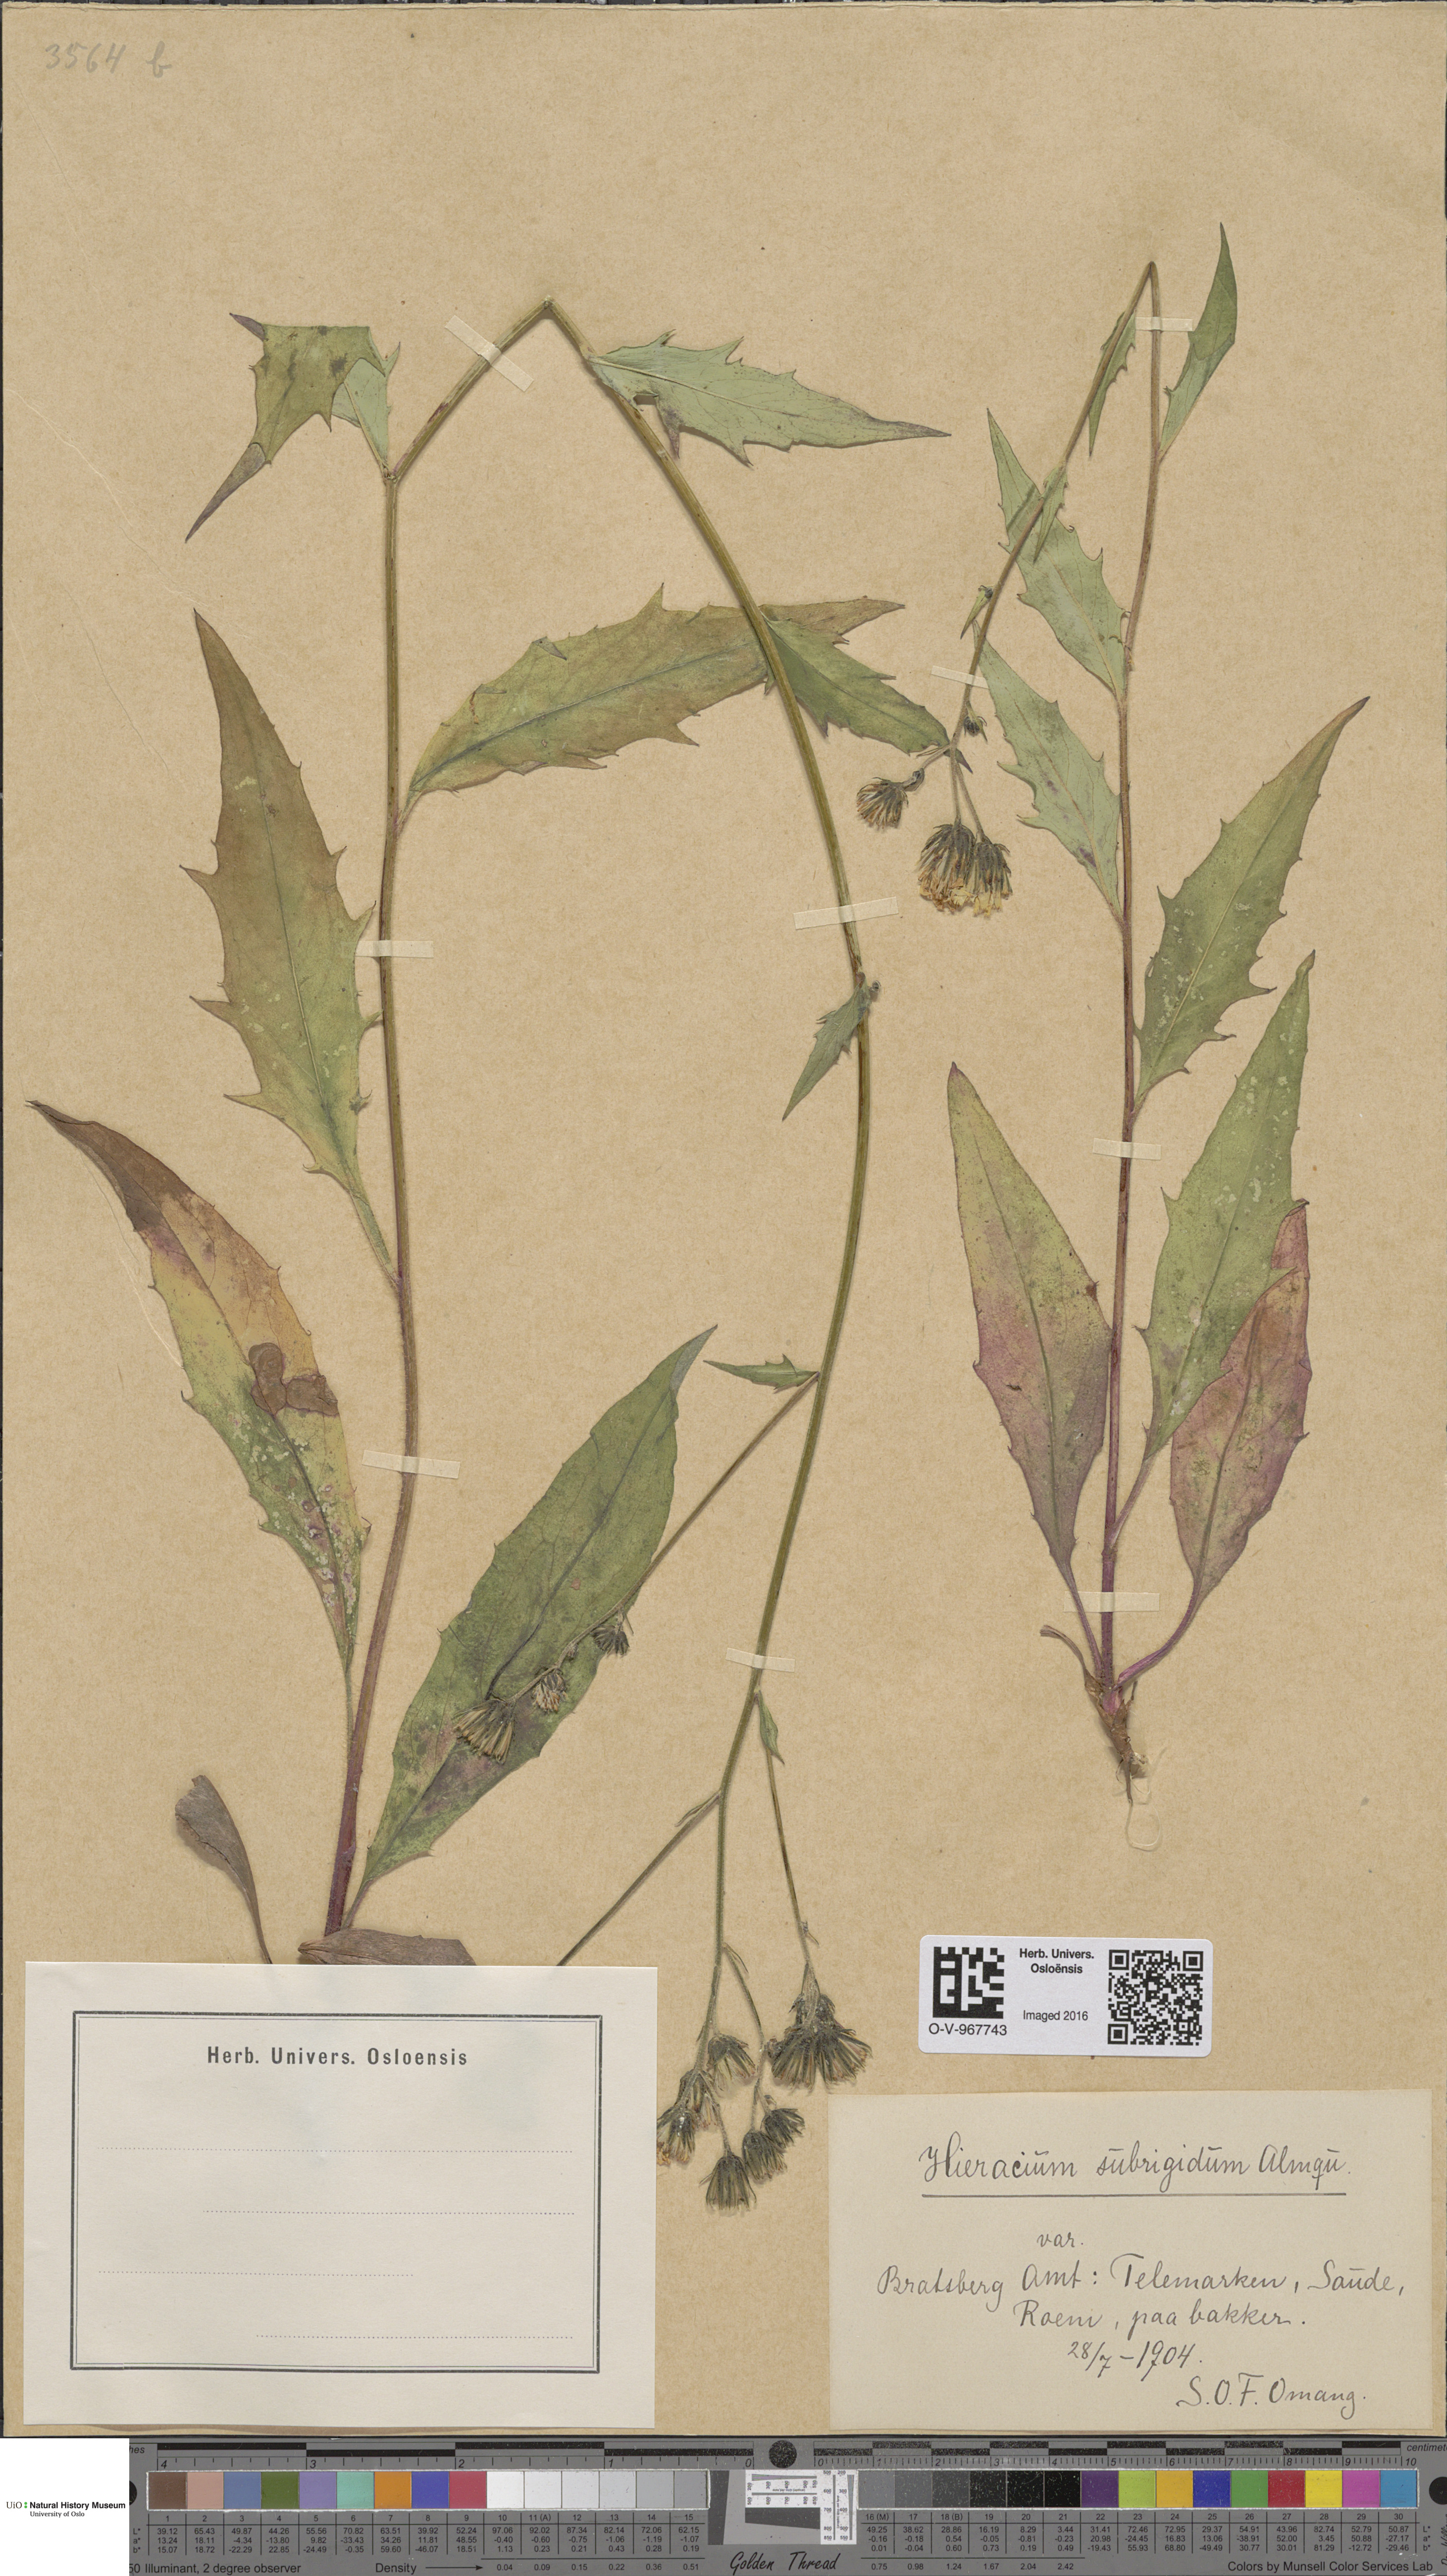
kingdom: Plantae
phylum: Tracheophyta
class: Magnoliopsida
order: Asterales
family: Asteraceae
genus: Hieracium
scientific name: Hieracium subrigidum
